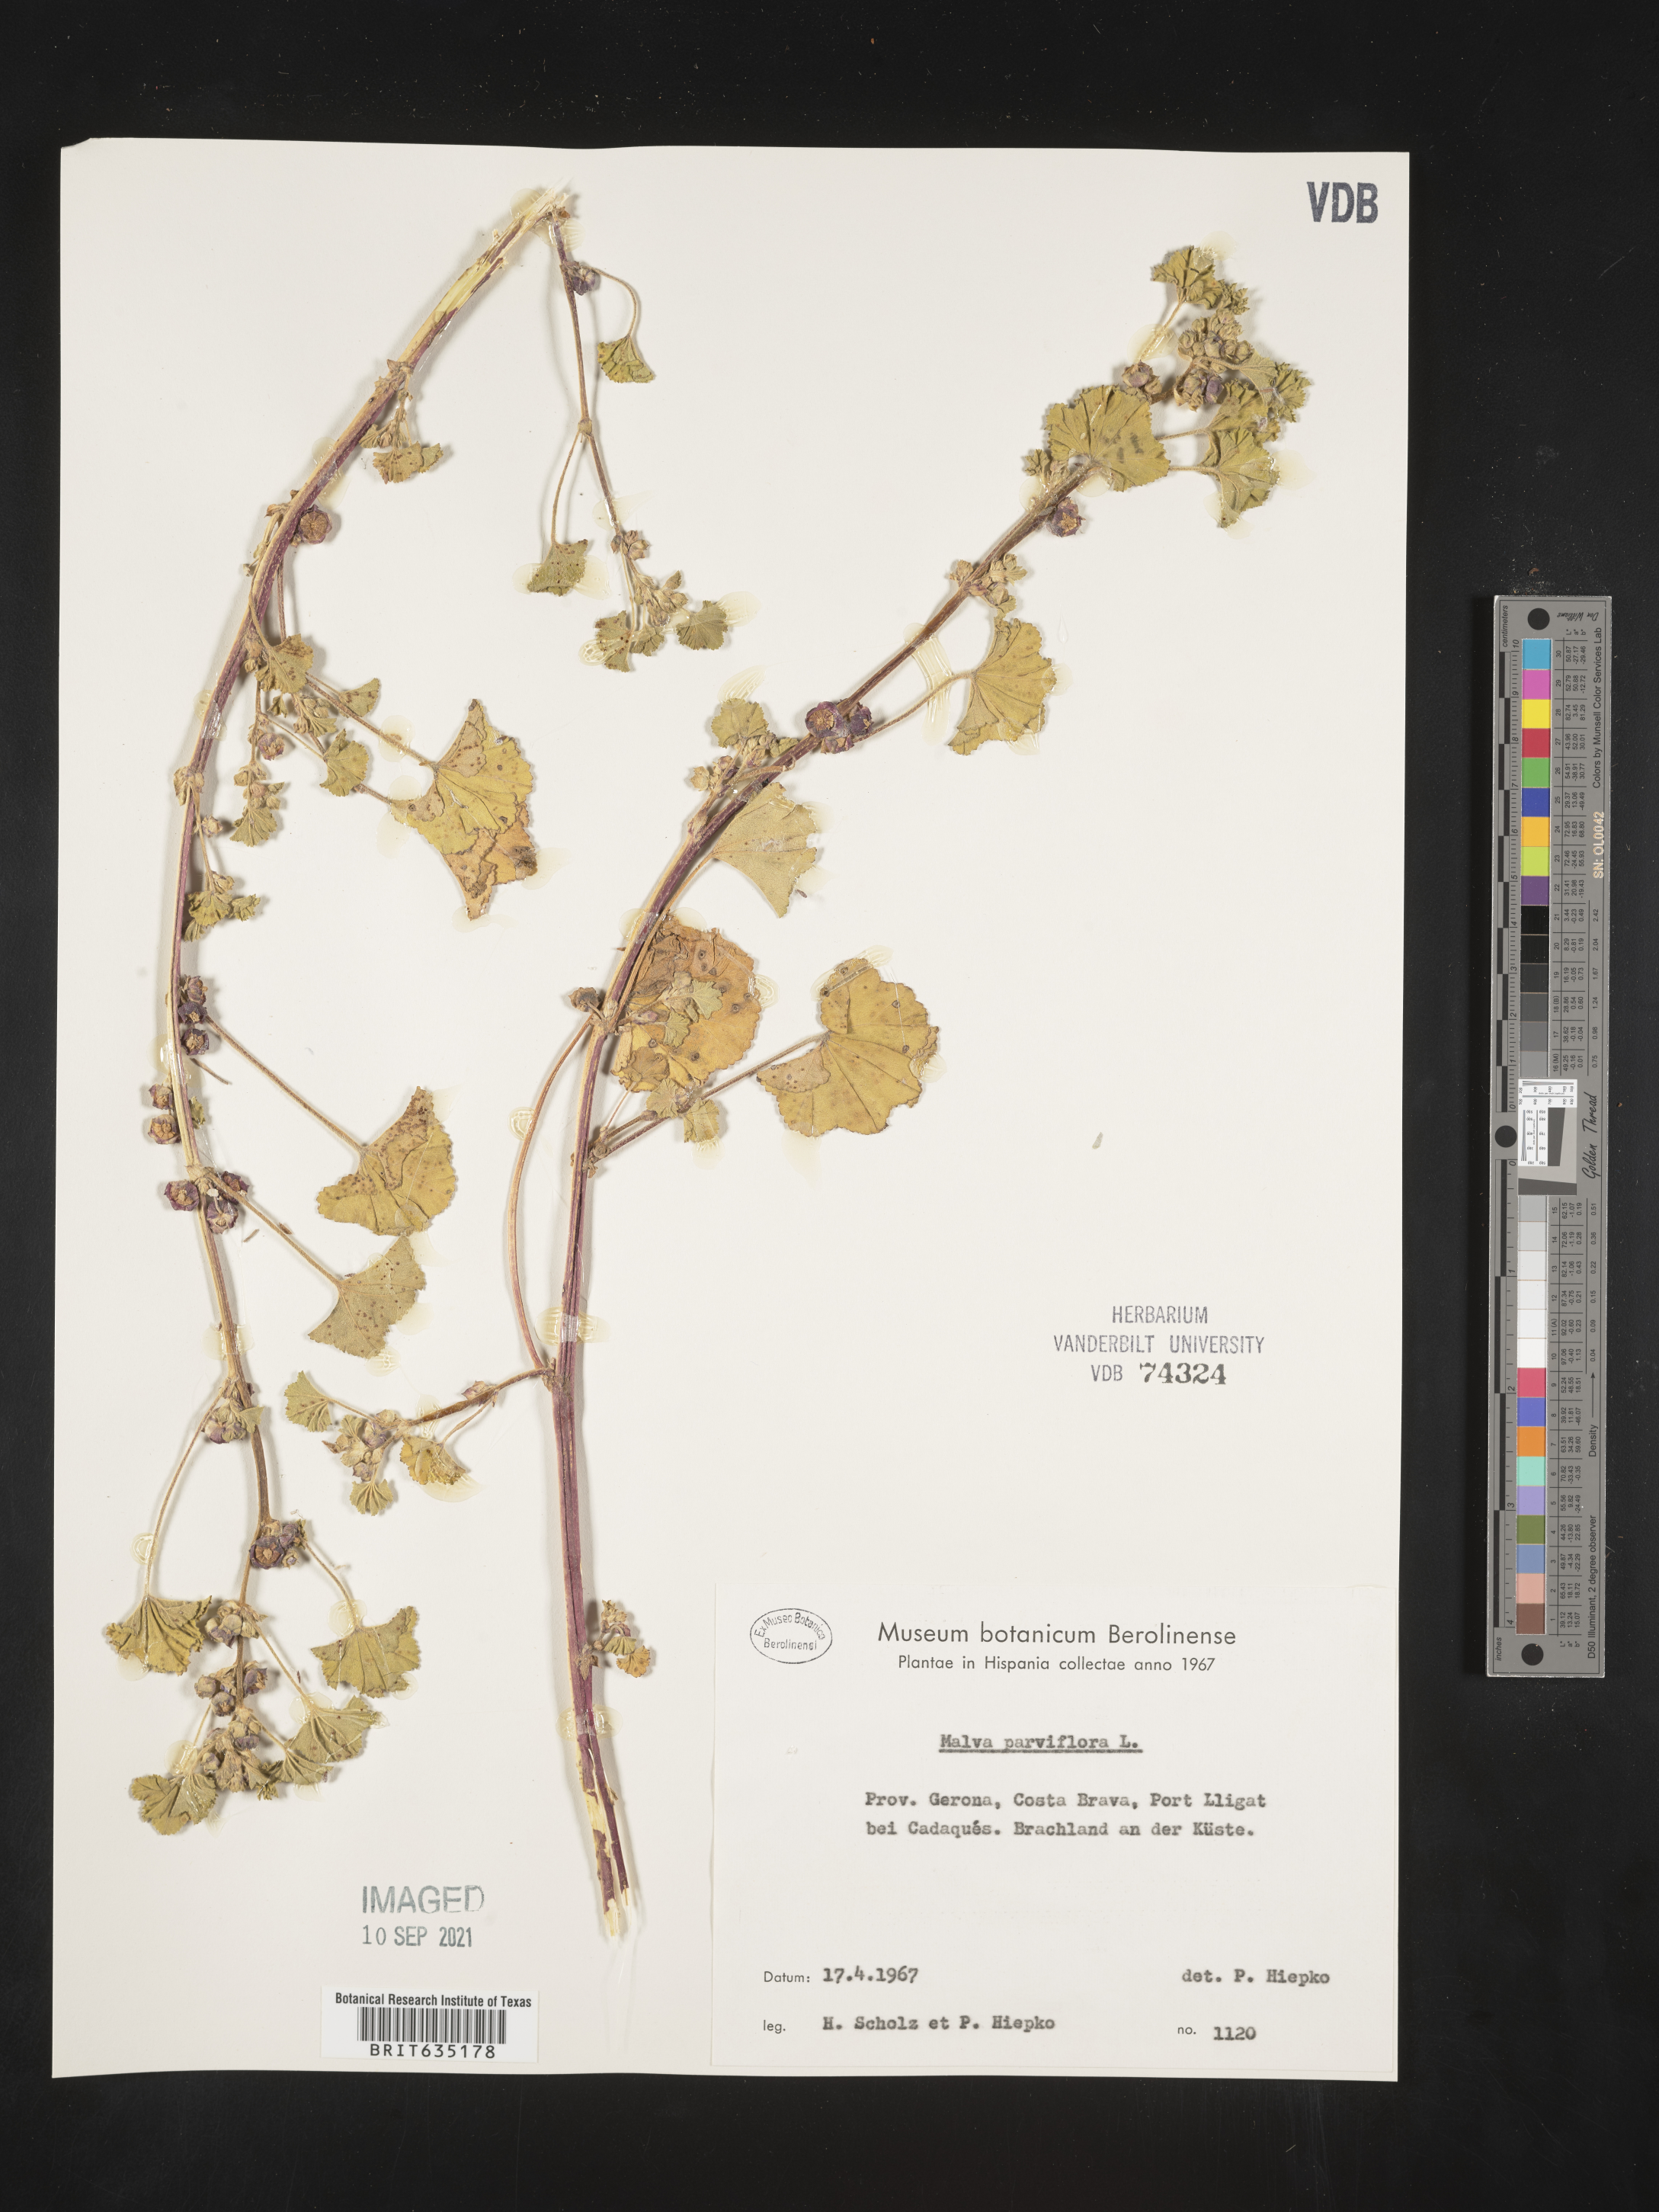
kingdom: Plantae
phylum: Tracheophyta
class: Magnoliopsida
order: Malvales
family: Malvaceae
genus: Malva
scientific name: Malva
